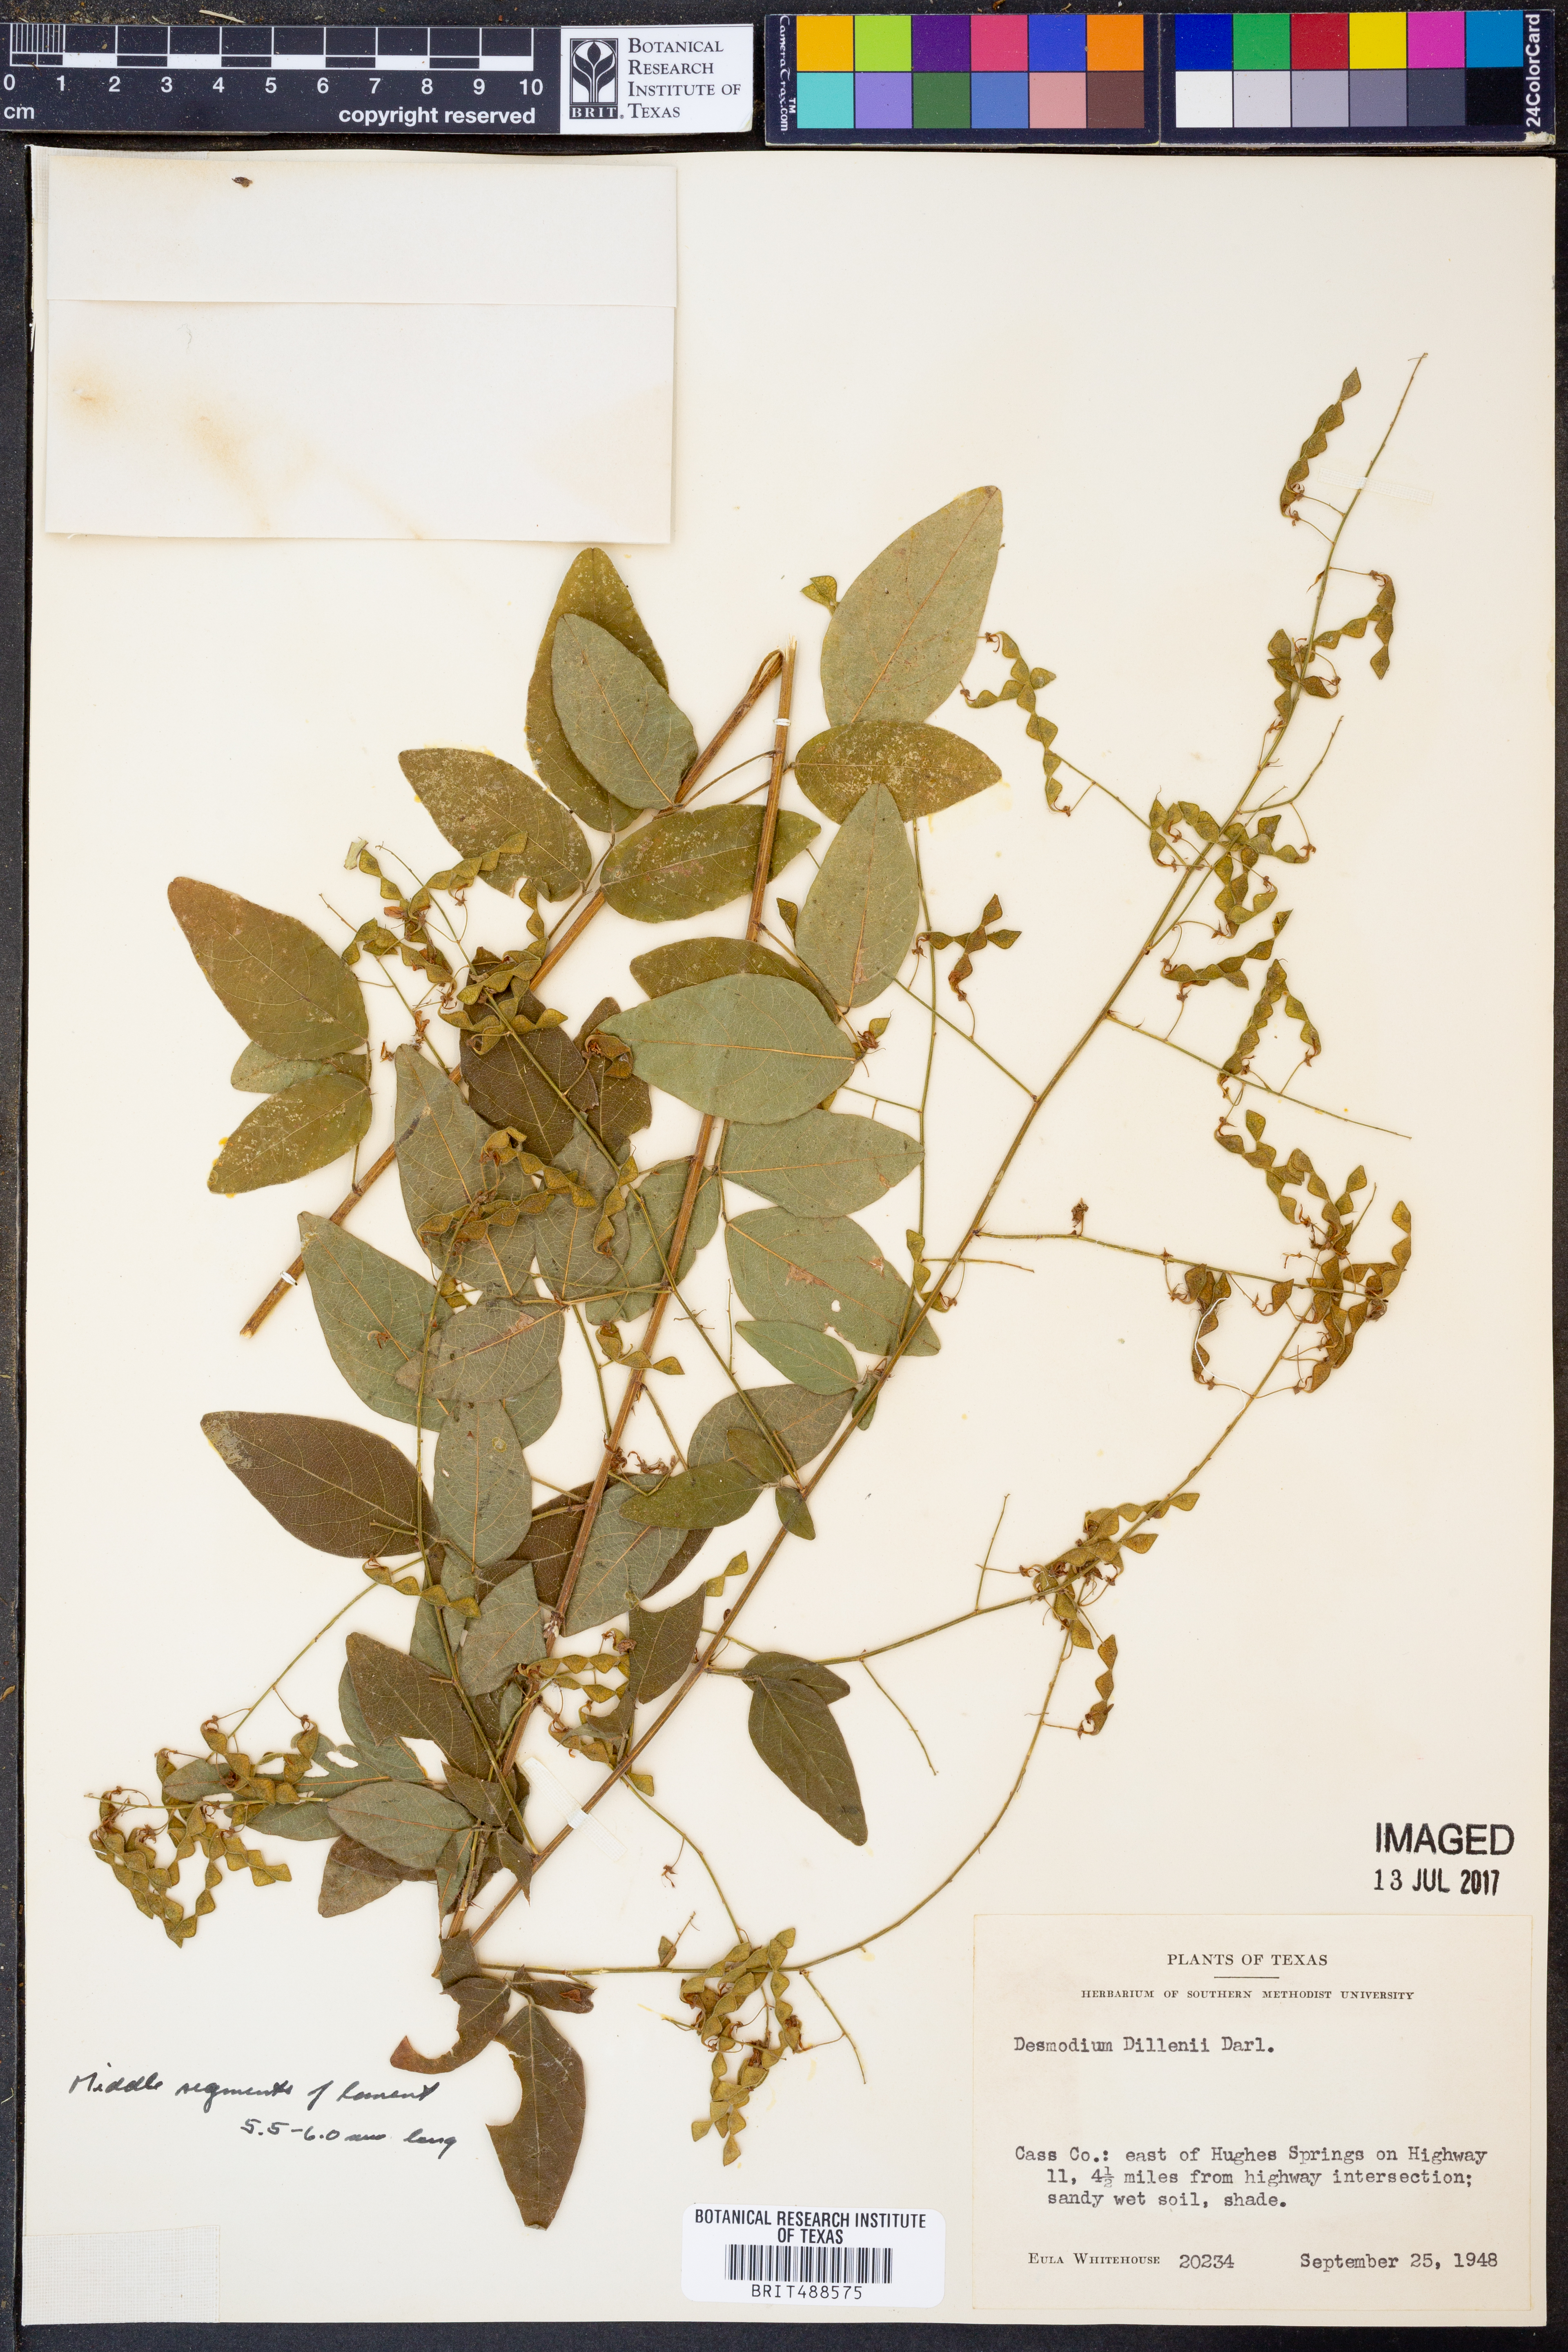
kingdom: Plantae
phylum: Tracheophyta
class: Magnoliopsida
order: Fabales
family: Fabaceae
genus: Desmodium
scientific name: Desmodium perplexum
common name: Perplexed tick trefoil
